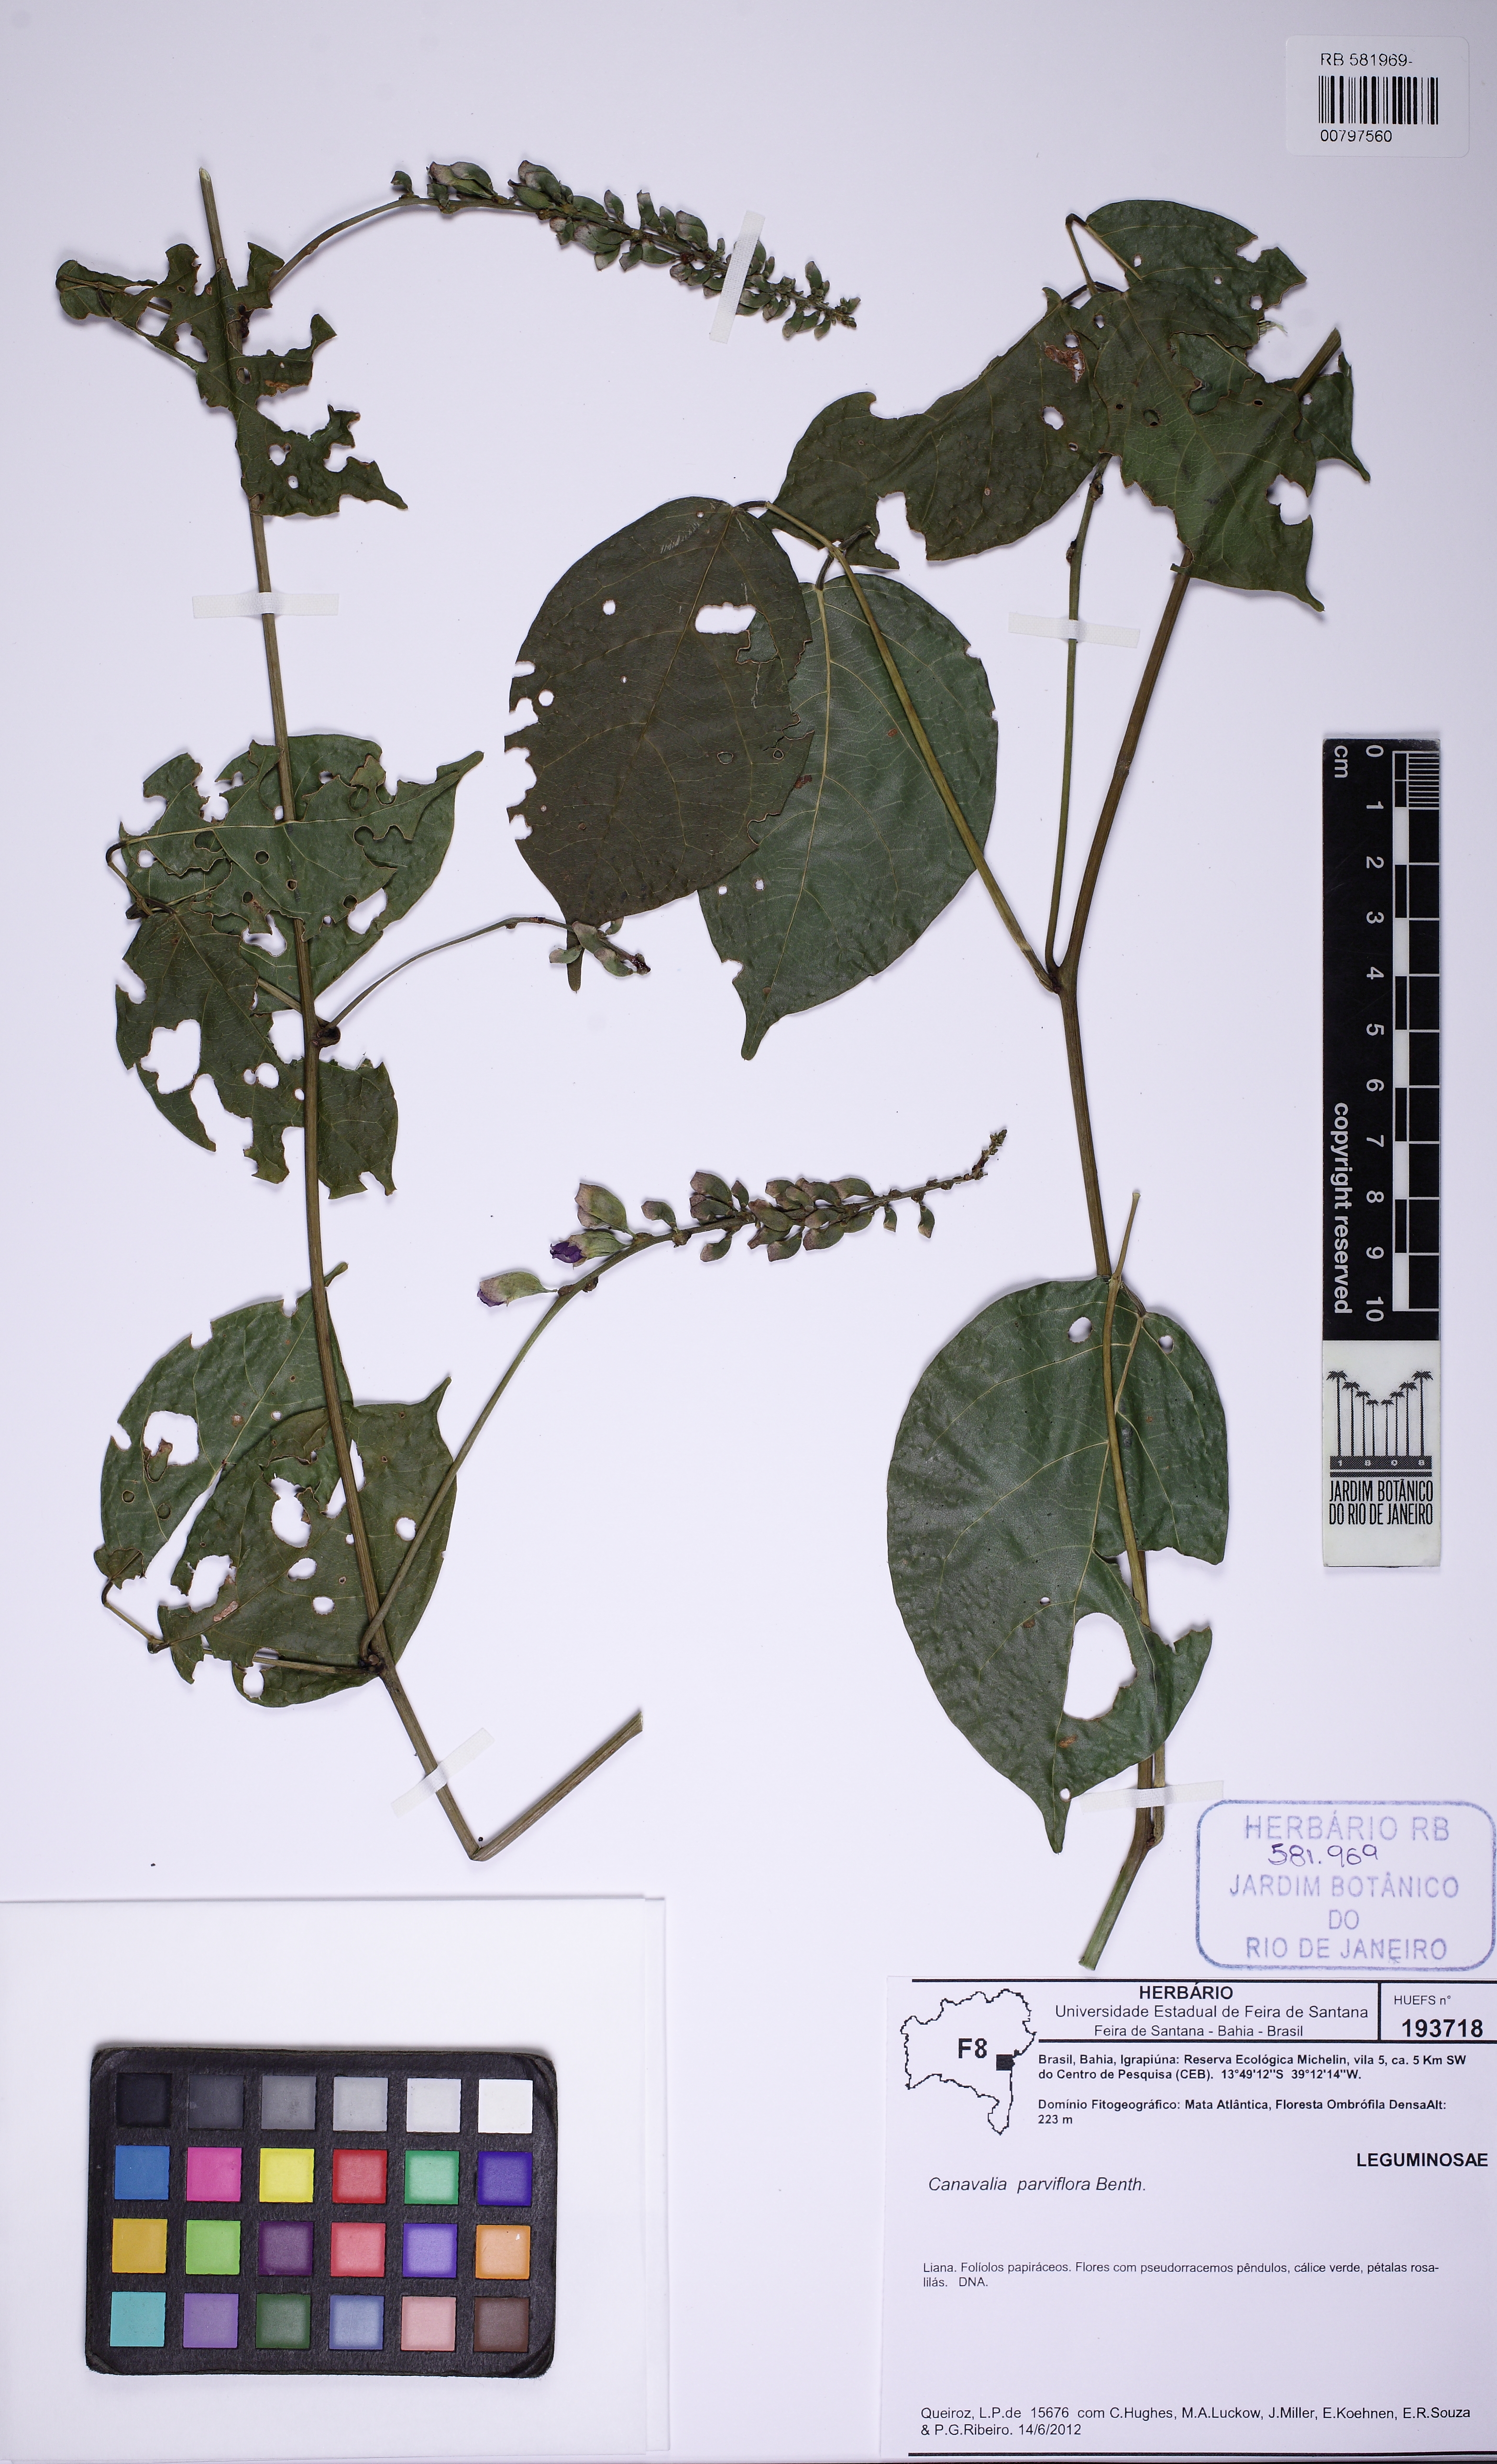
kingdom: Plantae
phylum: Tracheophyta
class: Magnoliopsida
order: Fabales
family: Fabaceae
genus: Canavalia
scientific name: Canavalia parviflora
